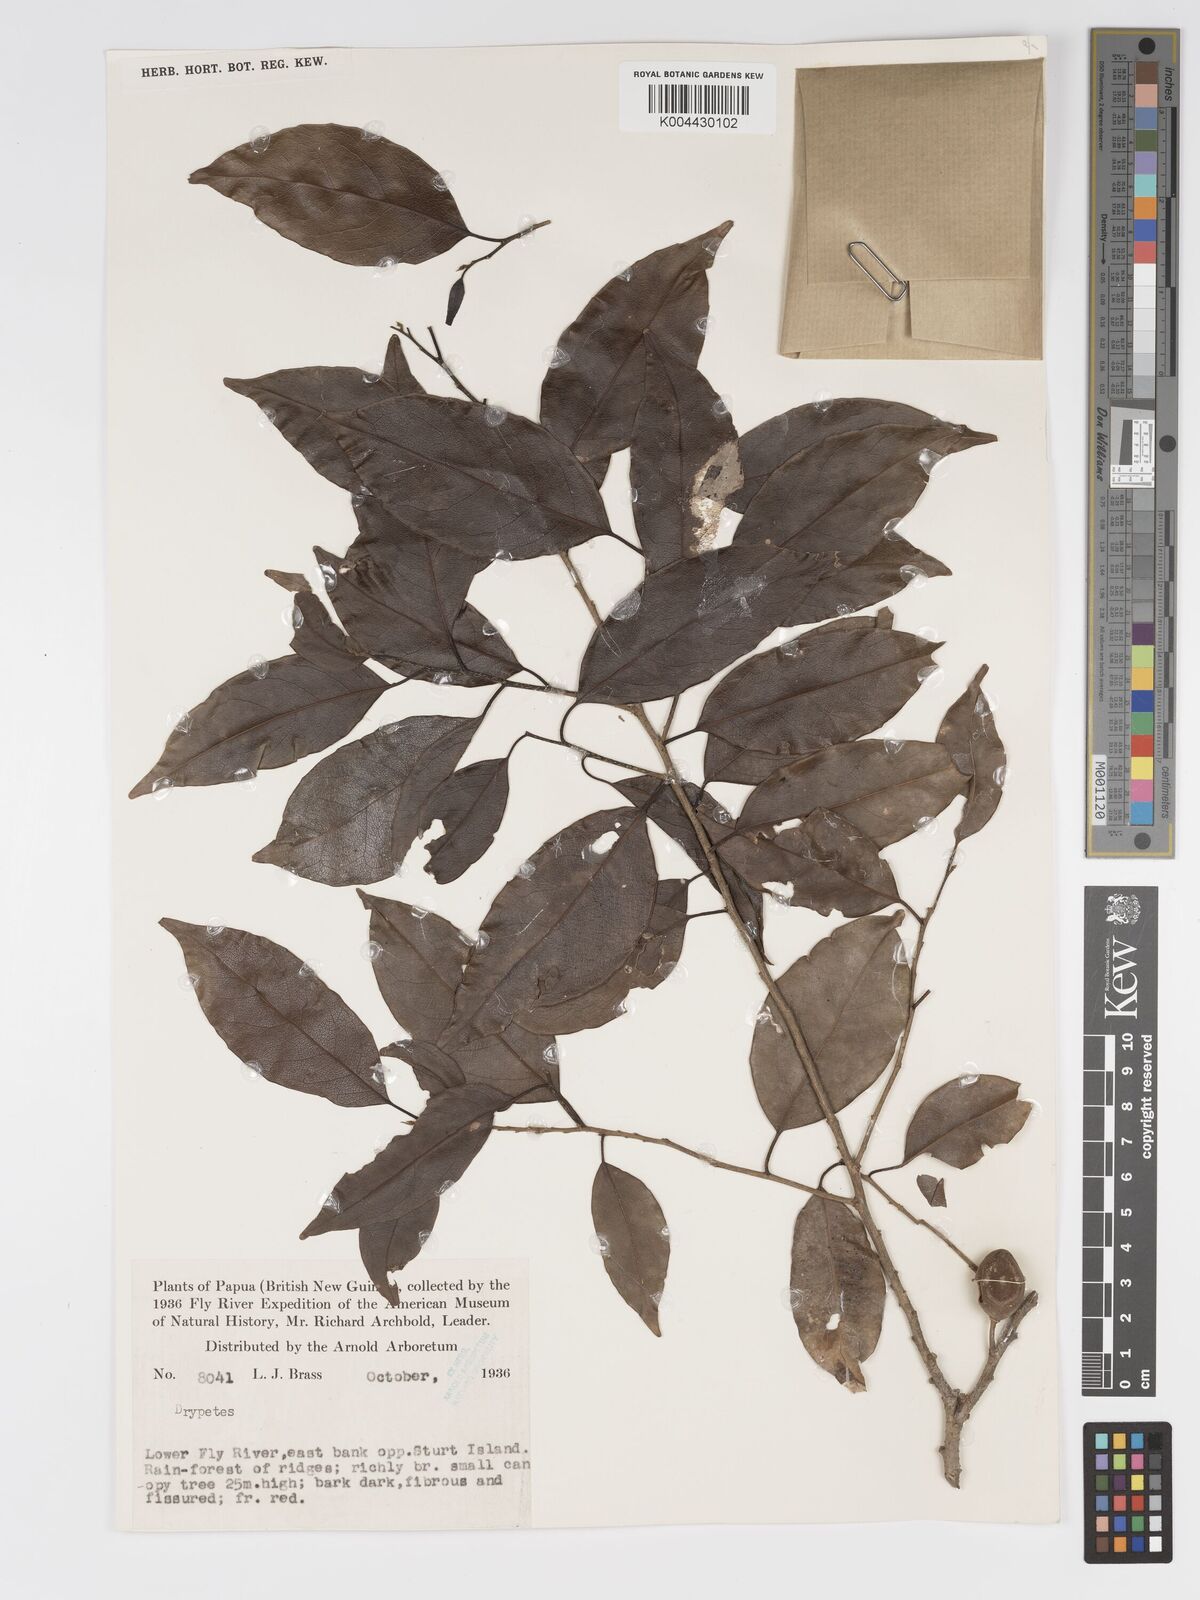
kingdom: Plantae
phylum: Tracheophyta
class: Magnoliopsida
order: Malpighiales
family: Putranjivaceae
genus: Drypetes
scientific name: Drypetes lasiogynoides
